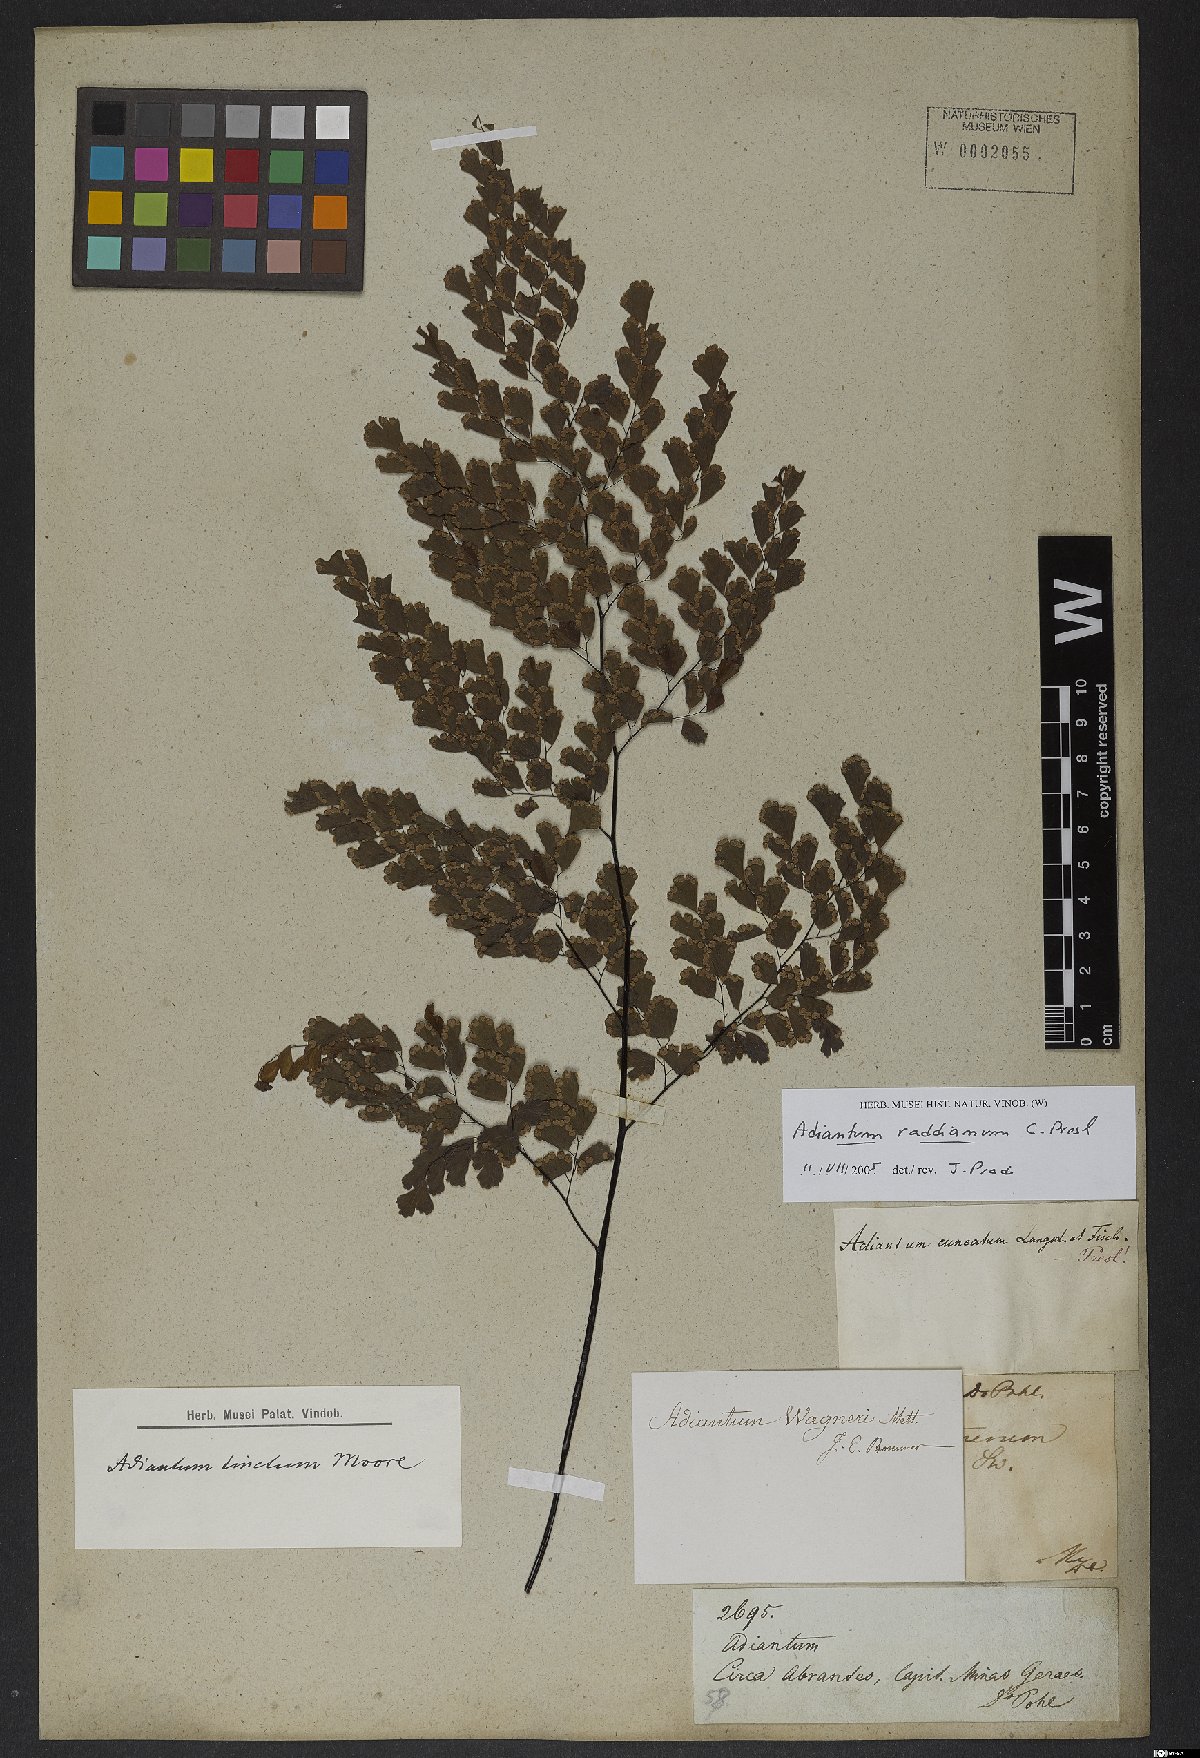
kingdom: Plantae
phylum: Tracheophyta
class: Polypodiopsida
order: Polypodiales
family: Pteridaceae
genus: Adiantum
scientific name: Adiantum raddianum
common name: Delta maidenhair fern
